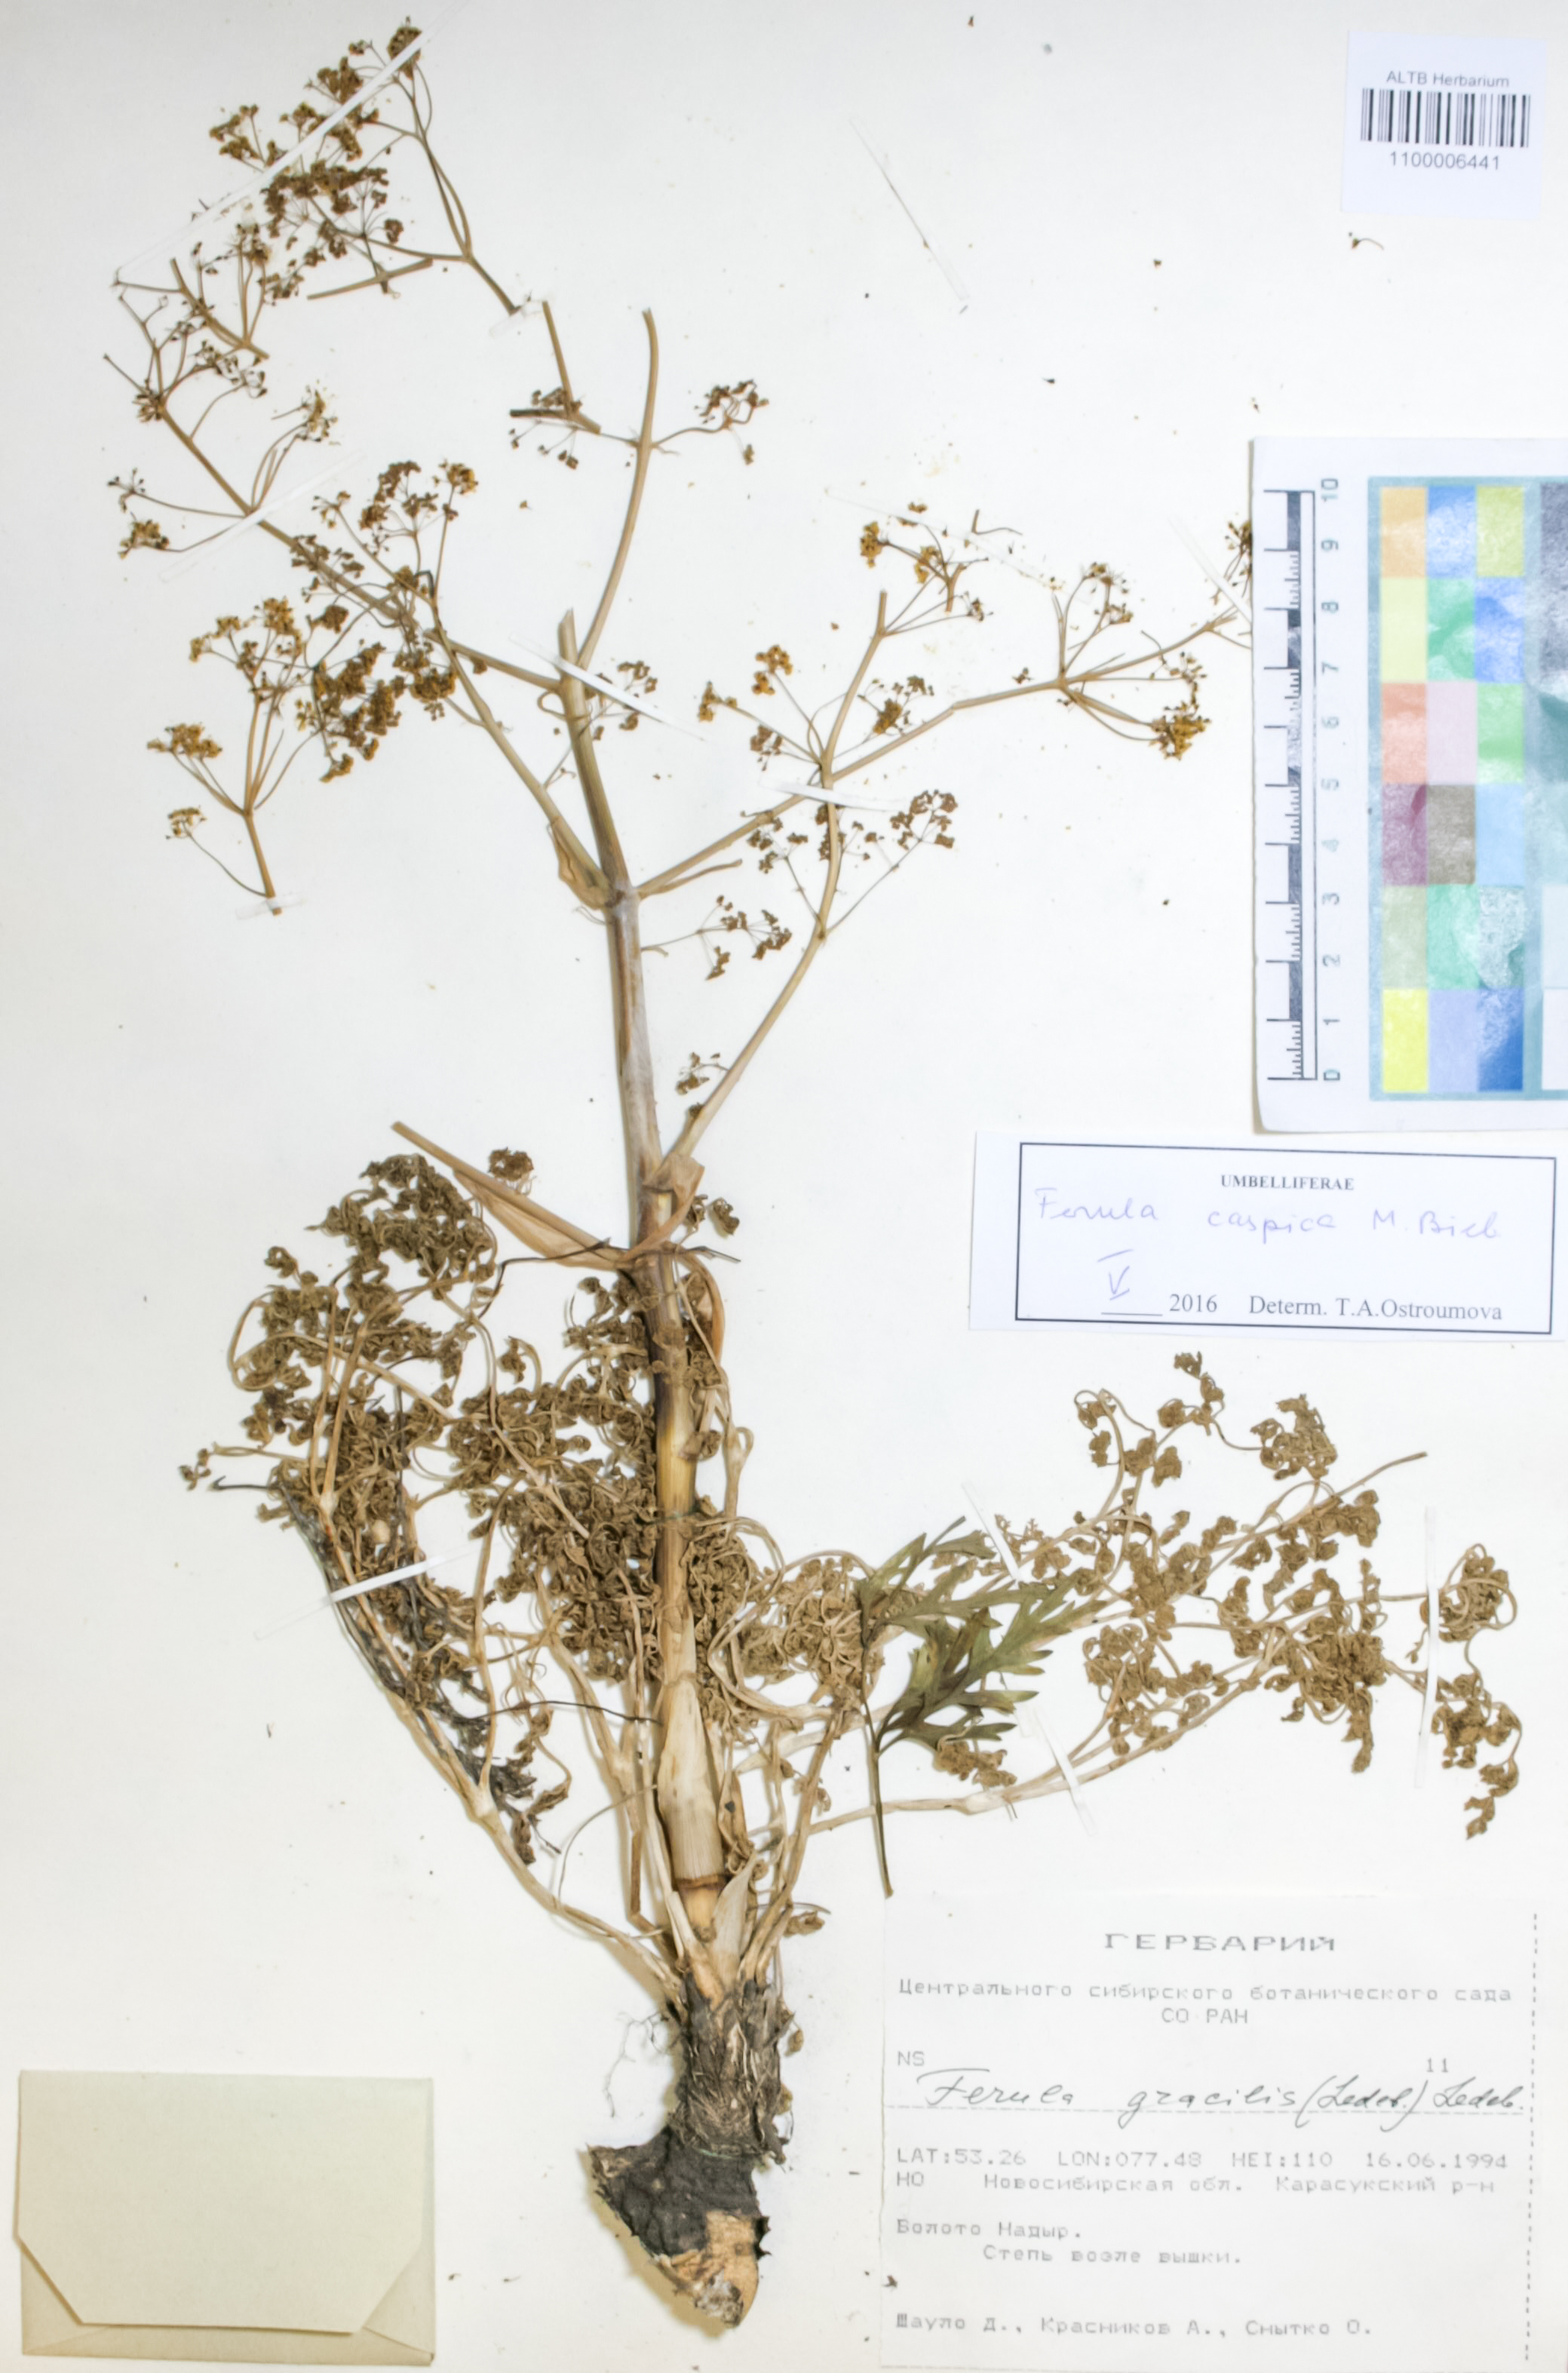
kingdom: Plantae
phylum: Tracheophyta
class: Magnoliopsida
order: Apiales
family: Apiaceae
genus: Ferula
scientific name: Ferula caspica
